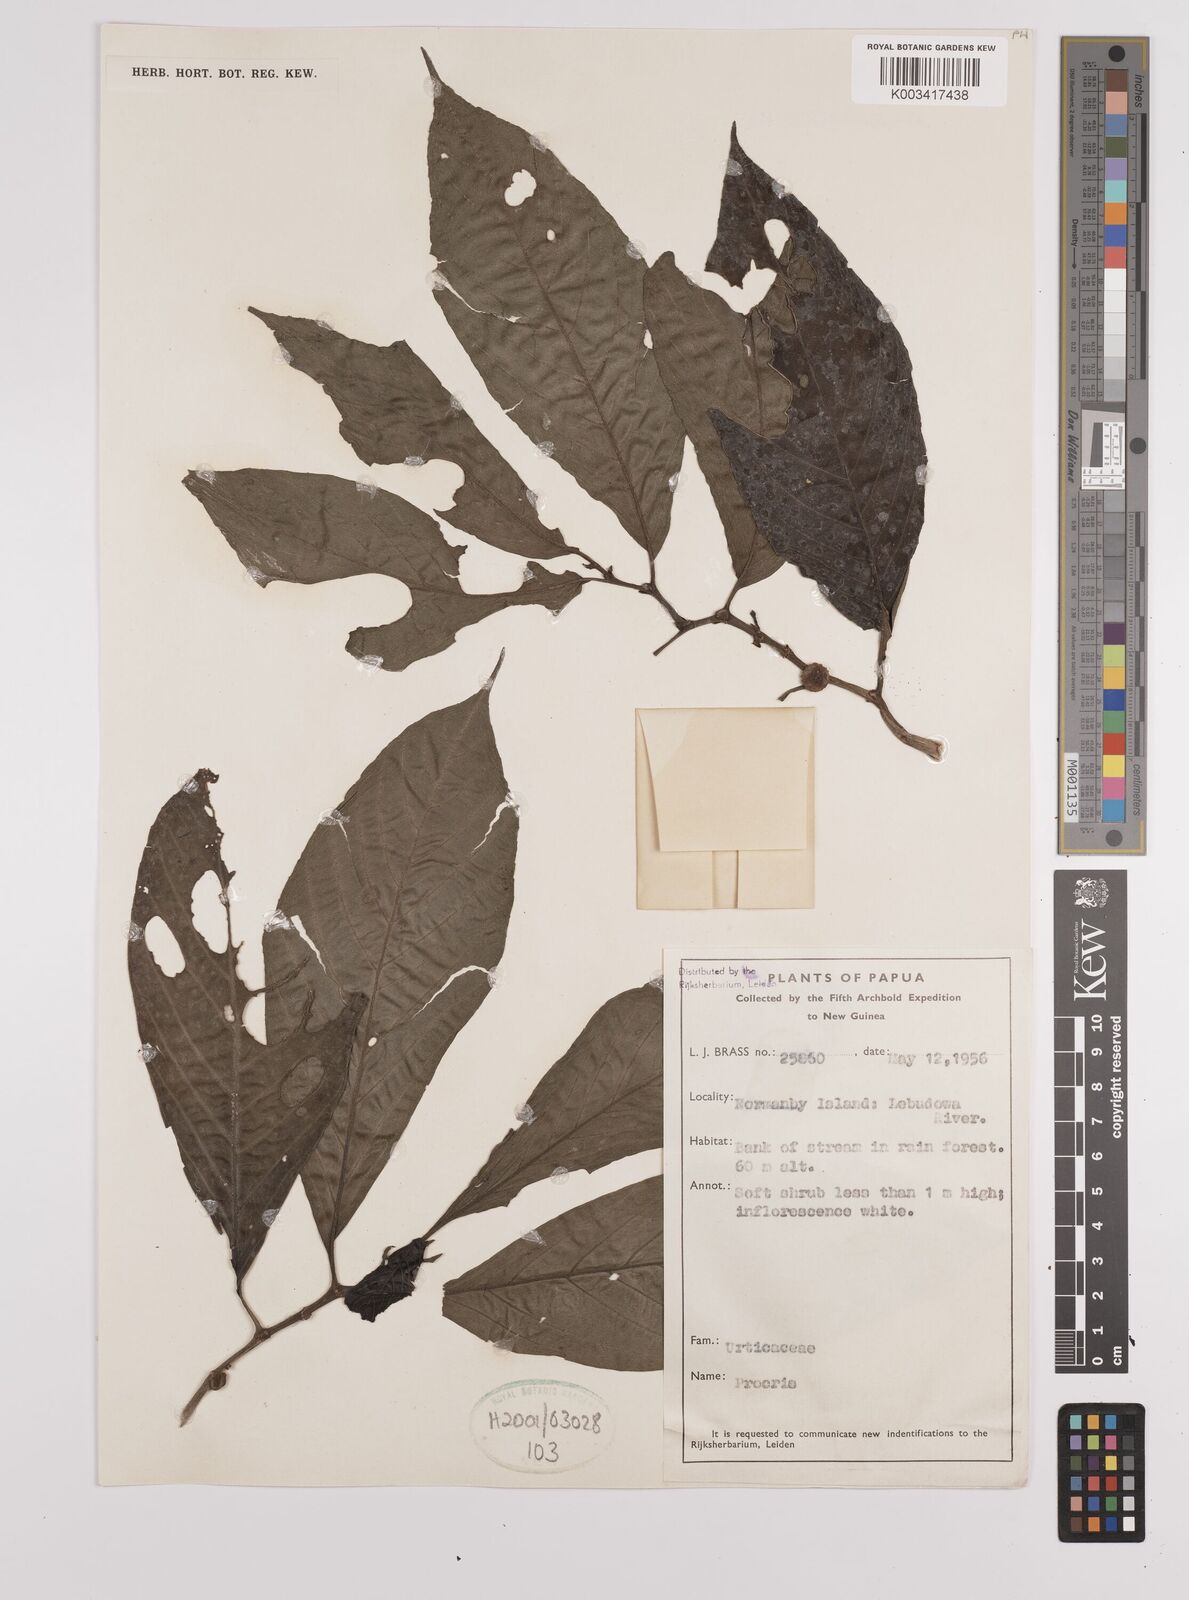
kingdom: Plantae
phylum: Tracheophyta
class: Magnoliopsida
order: Rosales
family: Urticaceae
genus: Procris
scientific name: Procris
